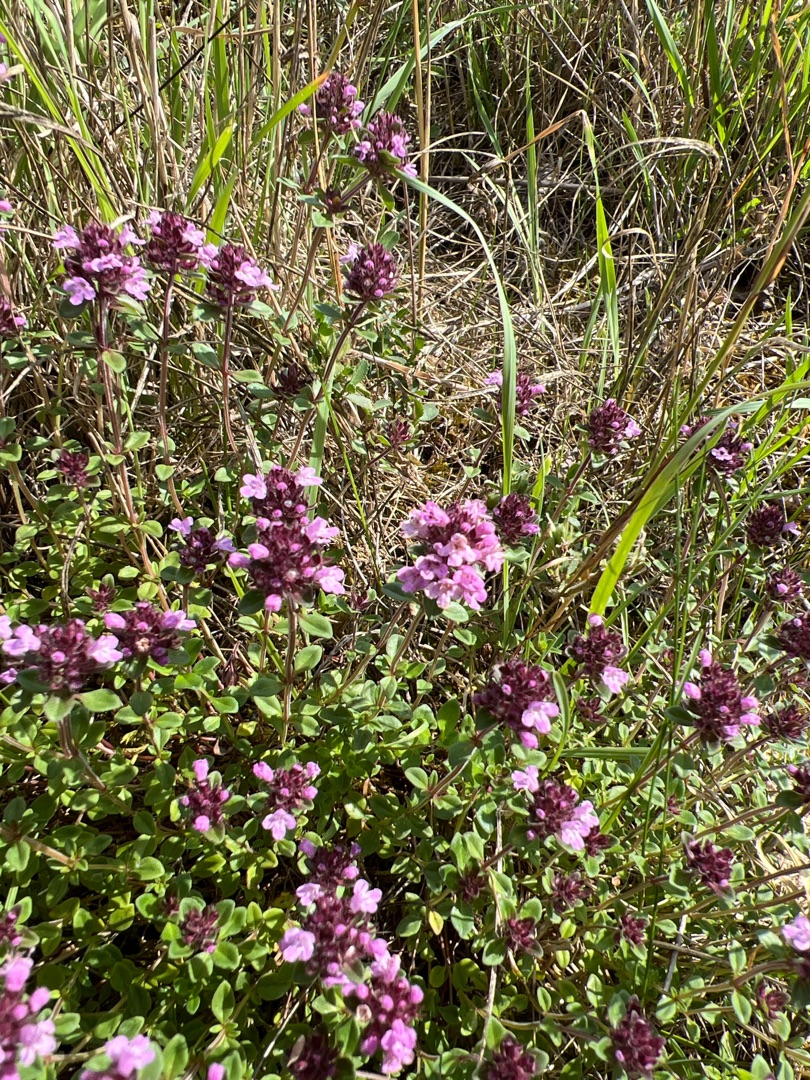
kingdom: Plantae
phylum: Tracheophyta
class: Magnoliopsida
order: Lamiales
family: Lamiaceae
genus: Thymus
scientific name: Thymus pulegioides
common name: Bredbladet timian
